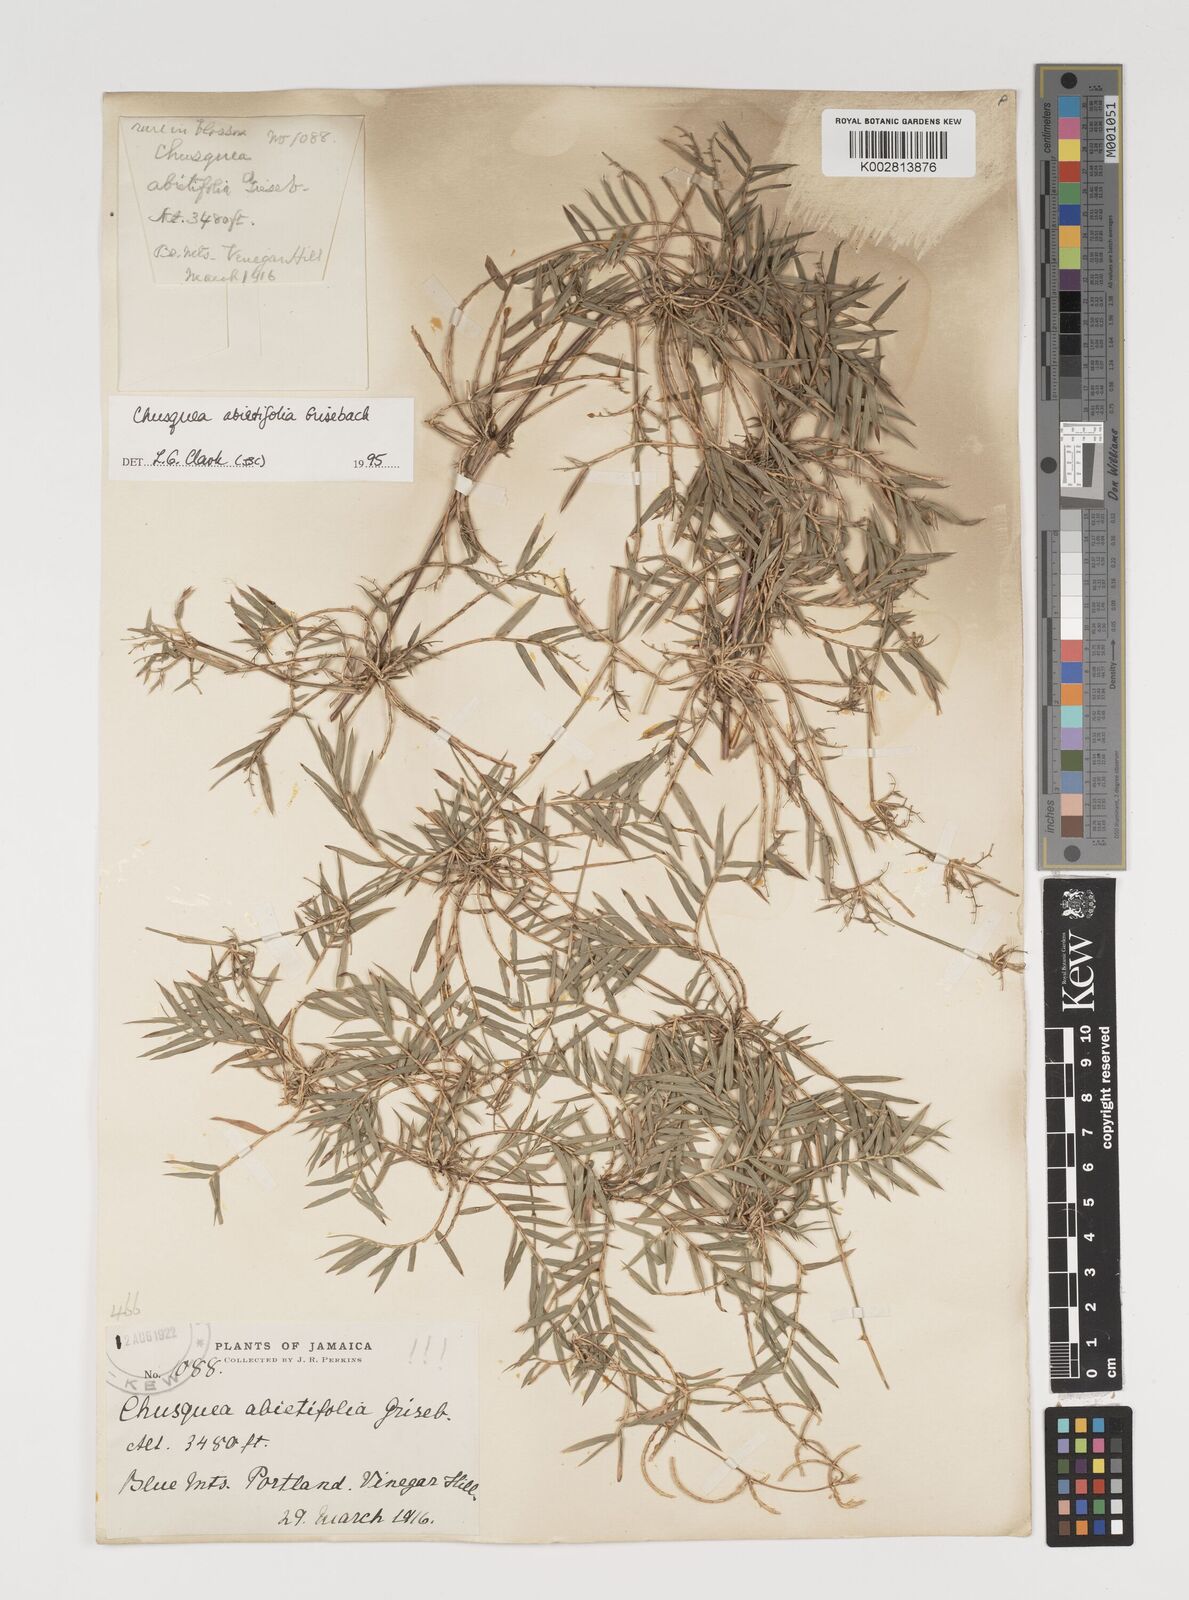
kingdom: Plantae
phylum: Tracheophyta
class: Liliopsida
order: Poales
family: Poaceae
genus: Chusquea
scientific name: Chusquea abietifolia
